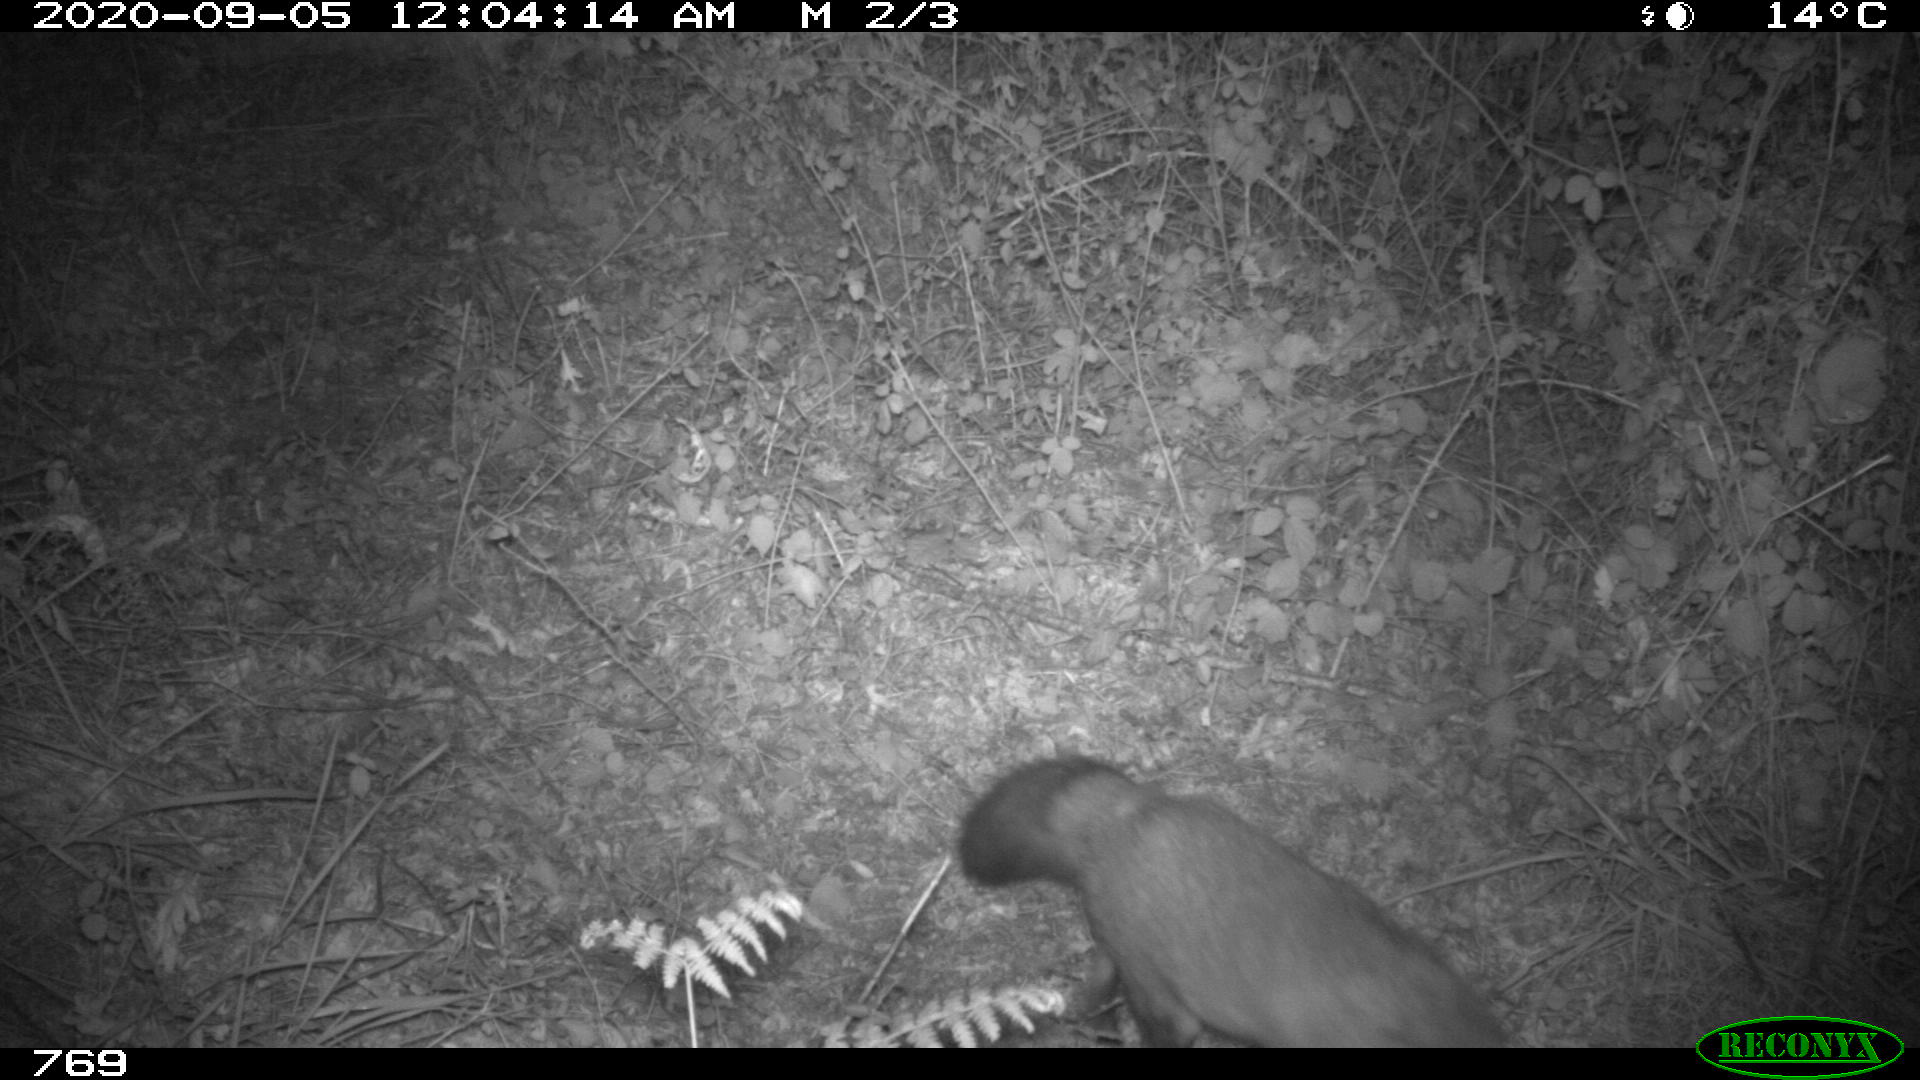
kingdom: Animalia
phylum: Chordata
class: Mammalia
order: Carnivora
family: Canidae
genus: Vulpes
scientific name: Vulpes vulpes
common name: Red fox
